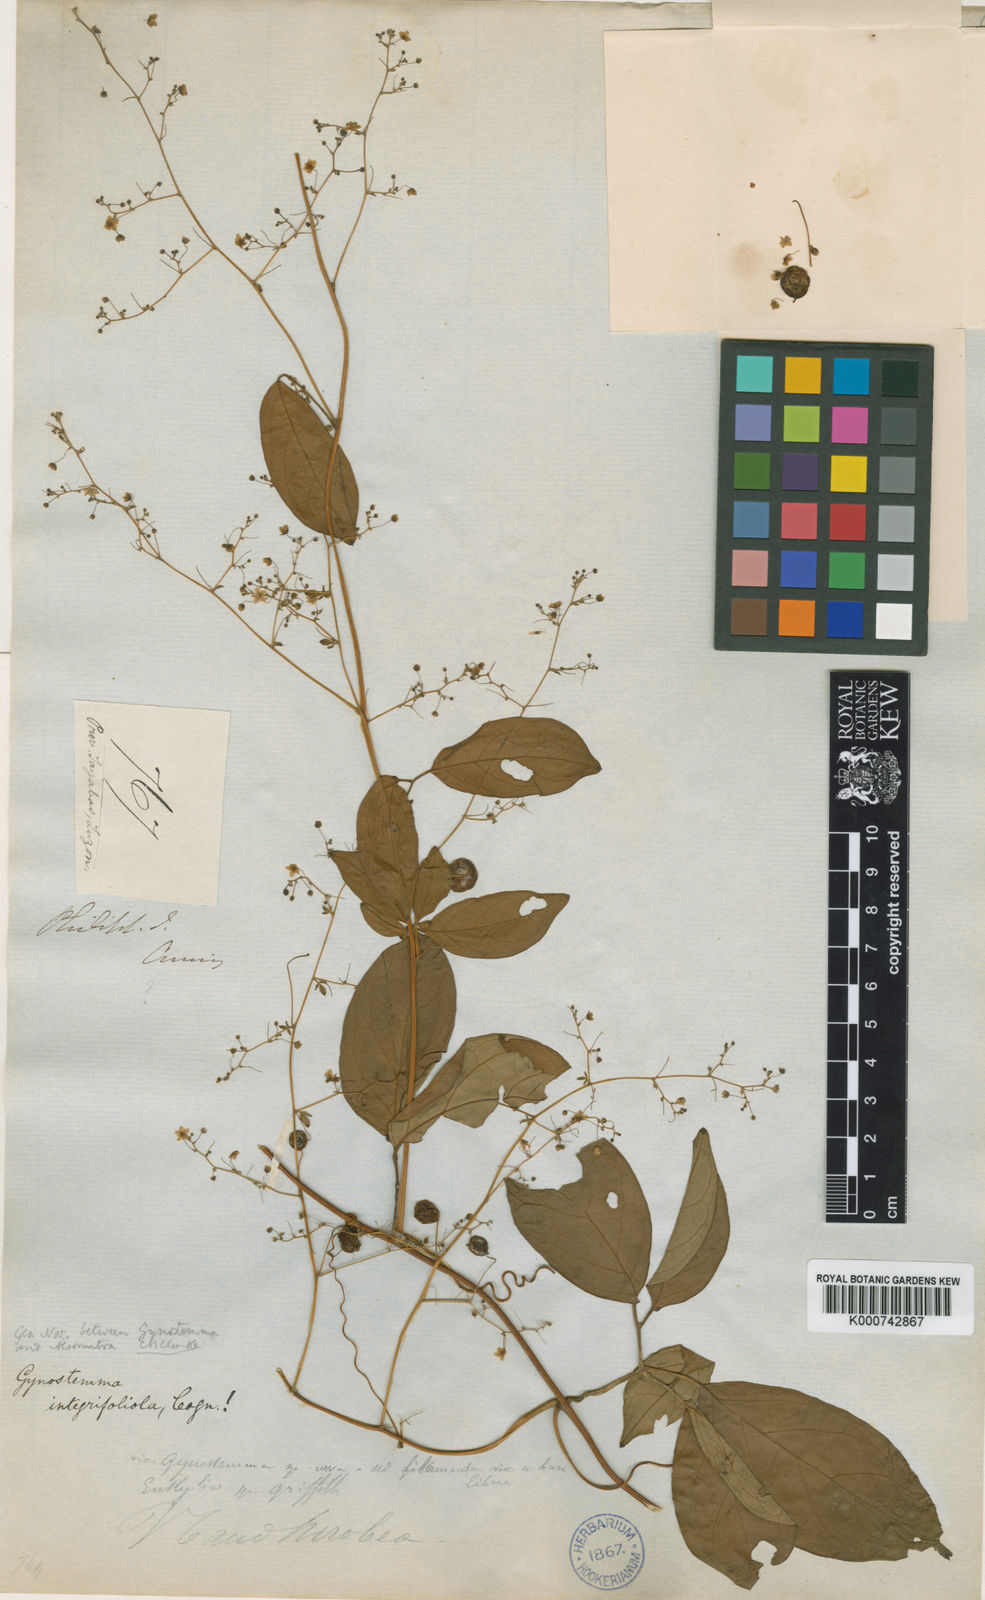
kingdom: Plantae
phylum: Tracheophyta
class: Magnoliopsida
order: Cucurbitales
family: Cucurbitaceae
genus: Neoalsomitra
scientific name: Neoalsomitra
